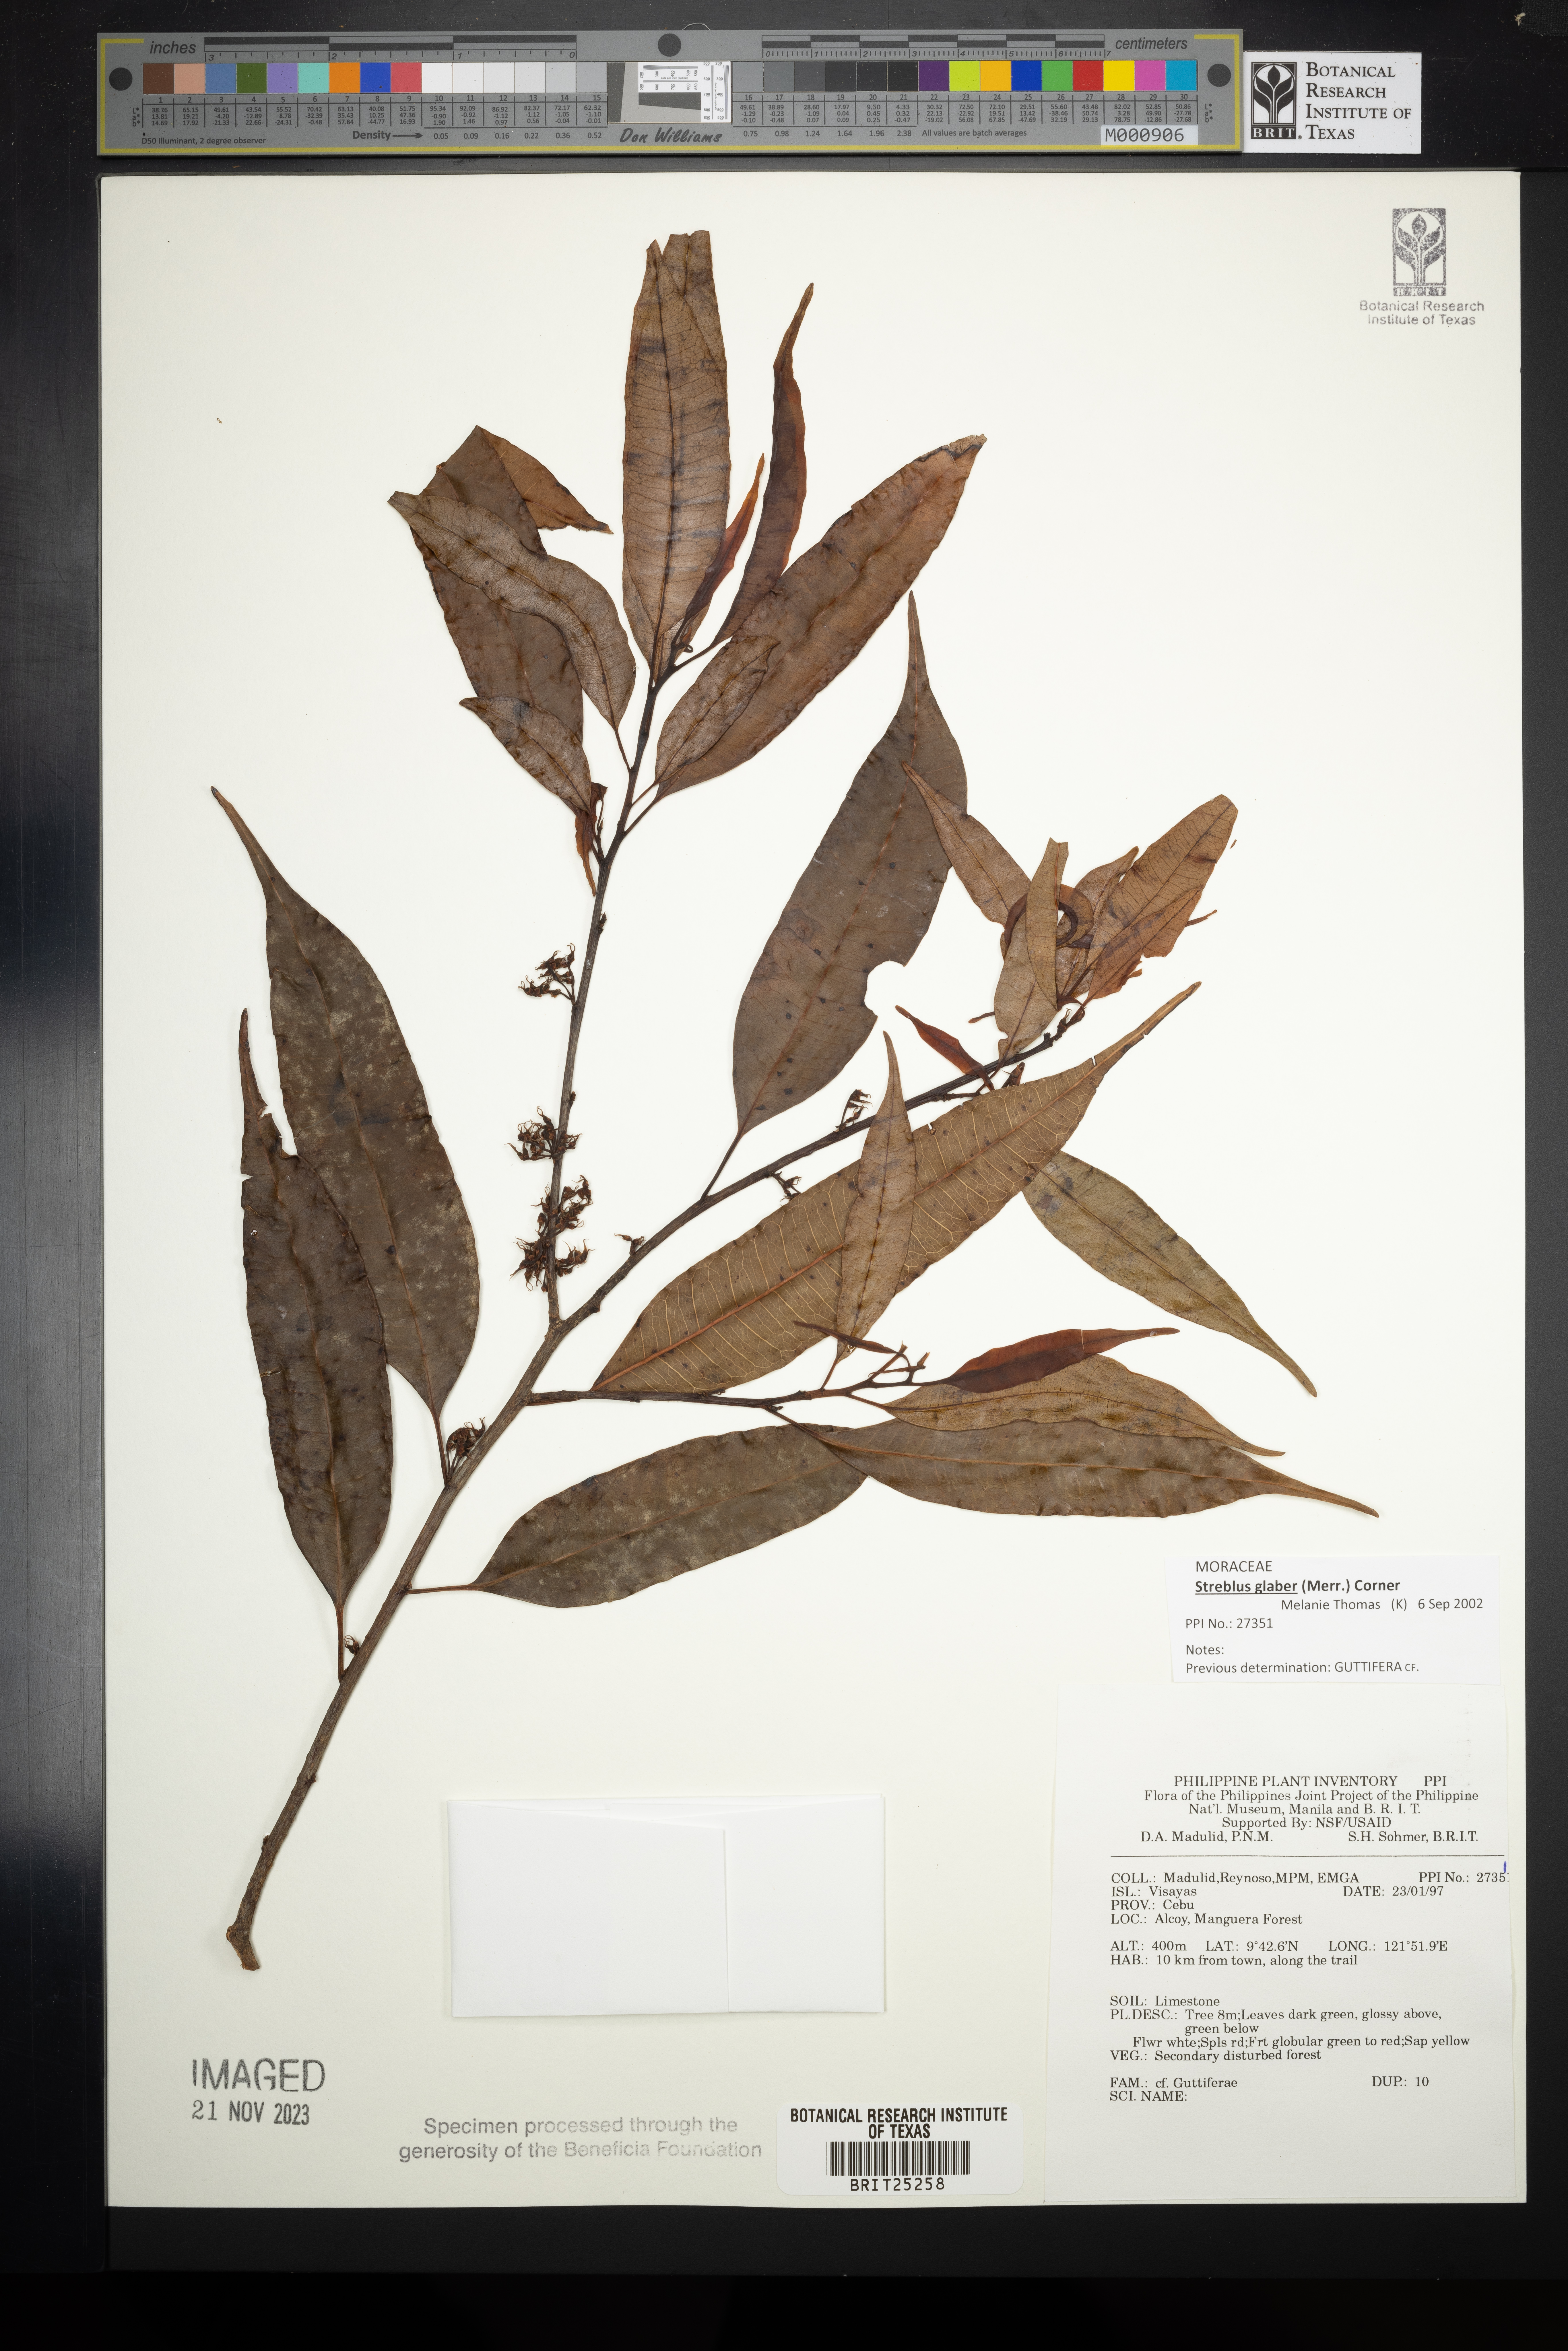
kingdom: Plantae
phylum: Tracheophyta
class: Magnoliopsida
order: Malpighiales
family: Hypericaceae
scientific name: Hypericaceae
